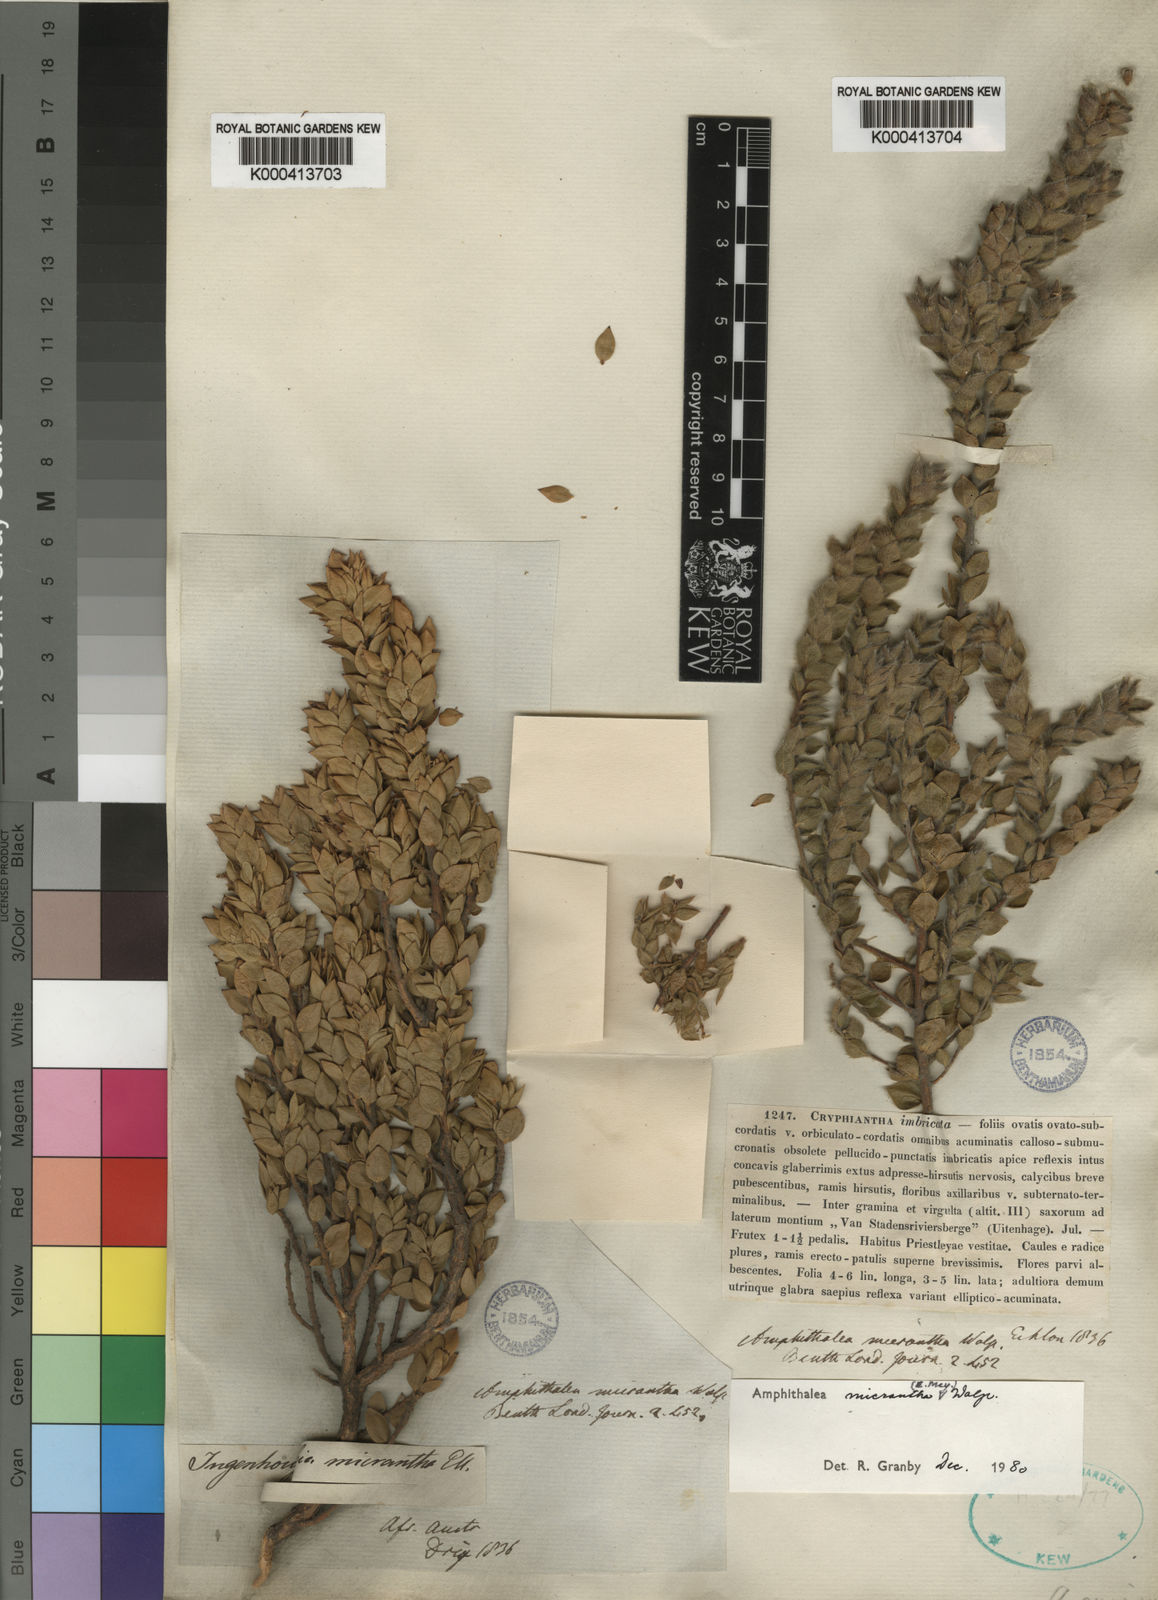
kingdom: Plantae
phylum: Tracheophyta
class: Magnoliopsida
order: Fabales
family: Fabaceae
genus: Amphithalea
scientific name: Amphithalea micrantha
